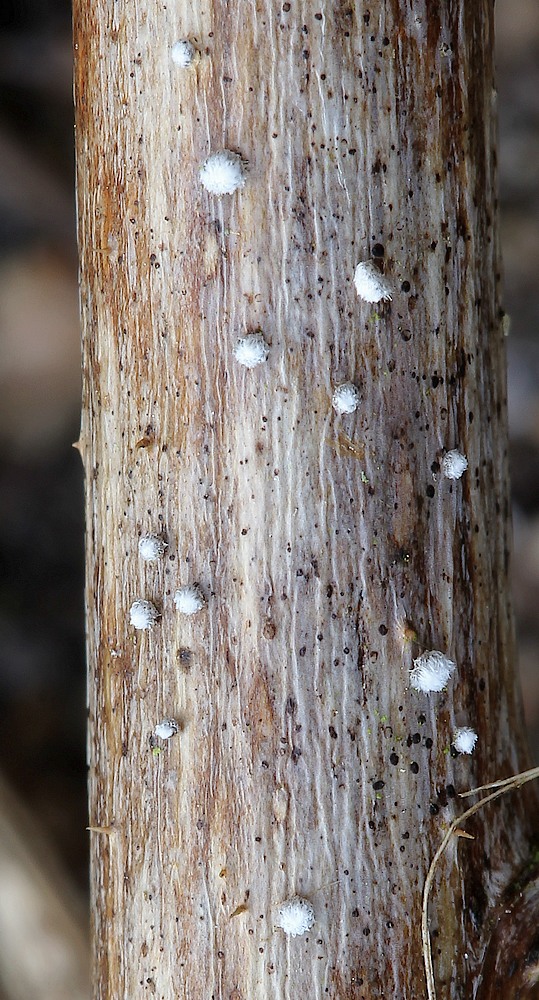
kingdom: Fungi
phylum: Basidiomycota
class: Agaricomycetes
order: Agaricales
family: Niaceae
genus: Lachnella
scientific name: Lachnella alboviolascens
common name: grå frynserede
